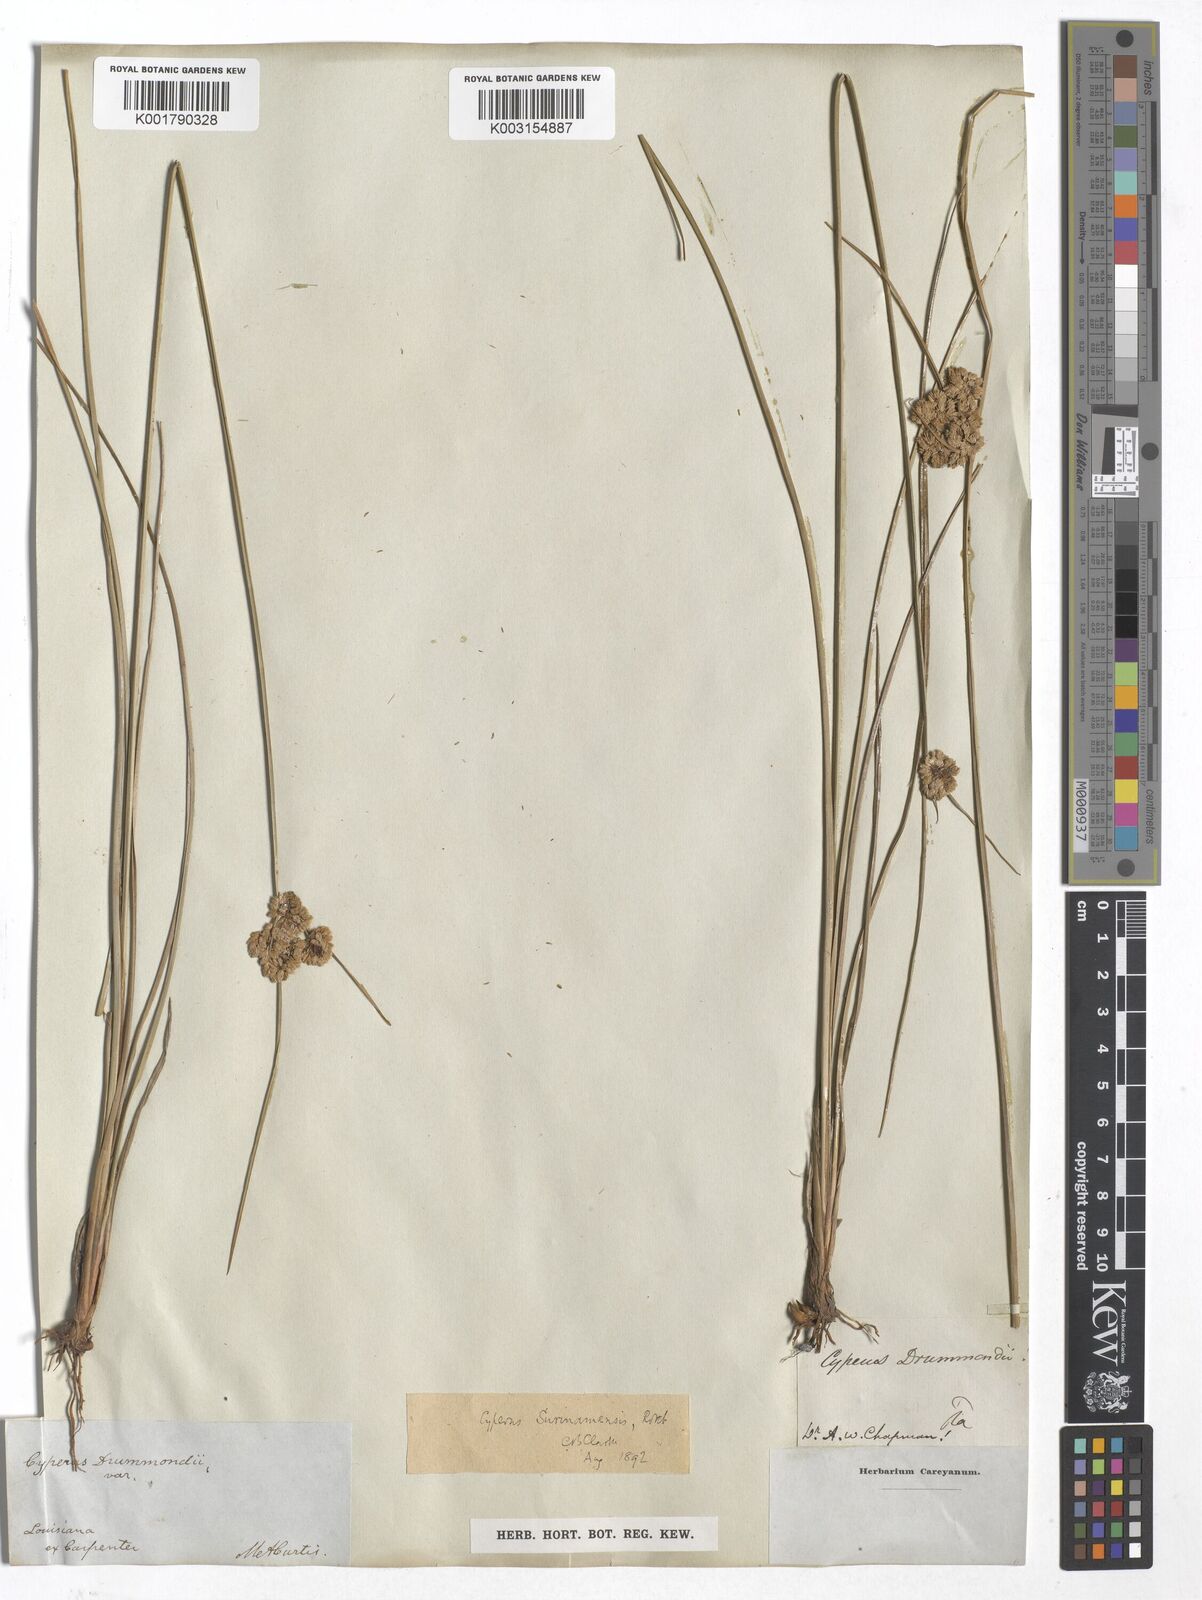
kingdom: Plantae
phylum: Tracheophyta
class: Liliopsida
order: Poales
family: Cyperaceae
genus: Cyperus
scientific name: Cyperus surinamensis
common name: Tropical flat sedge
